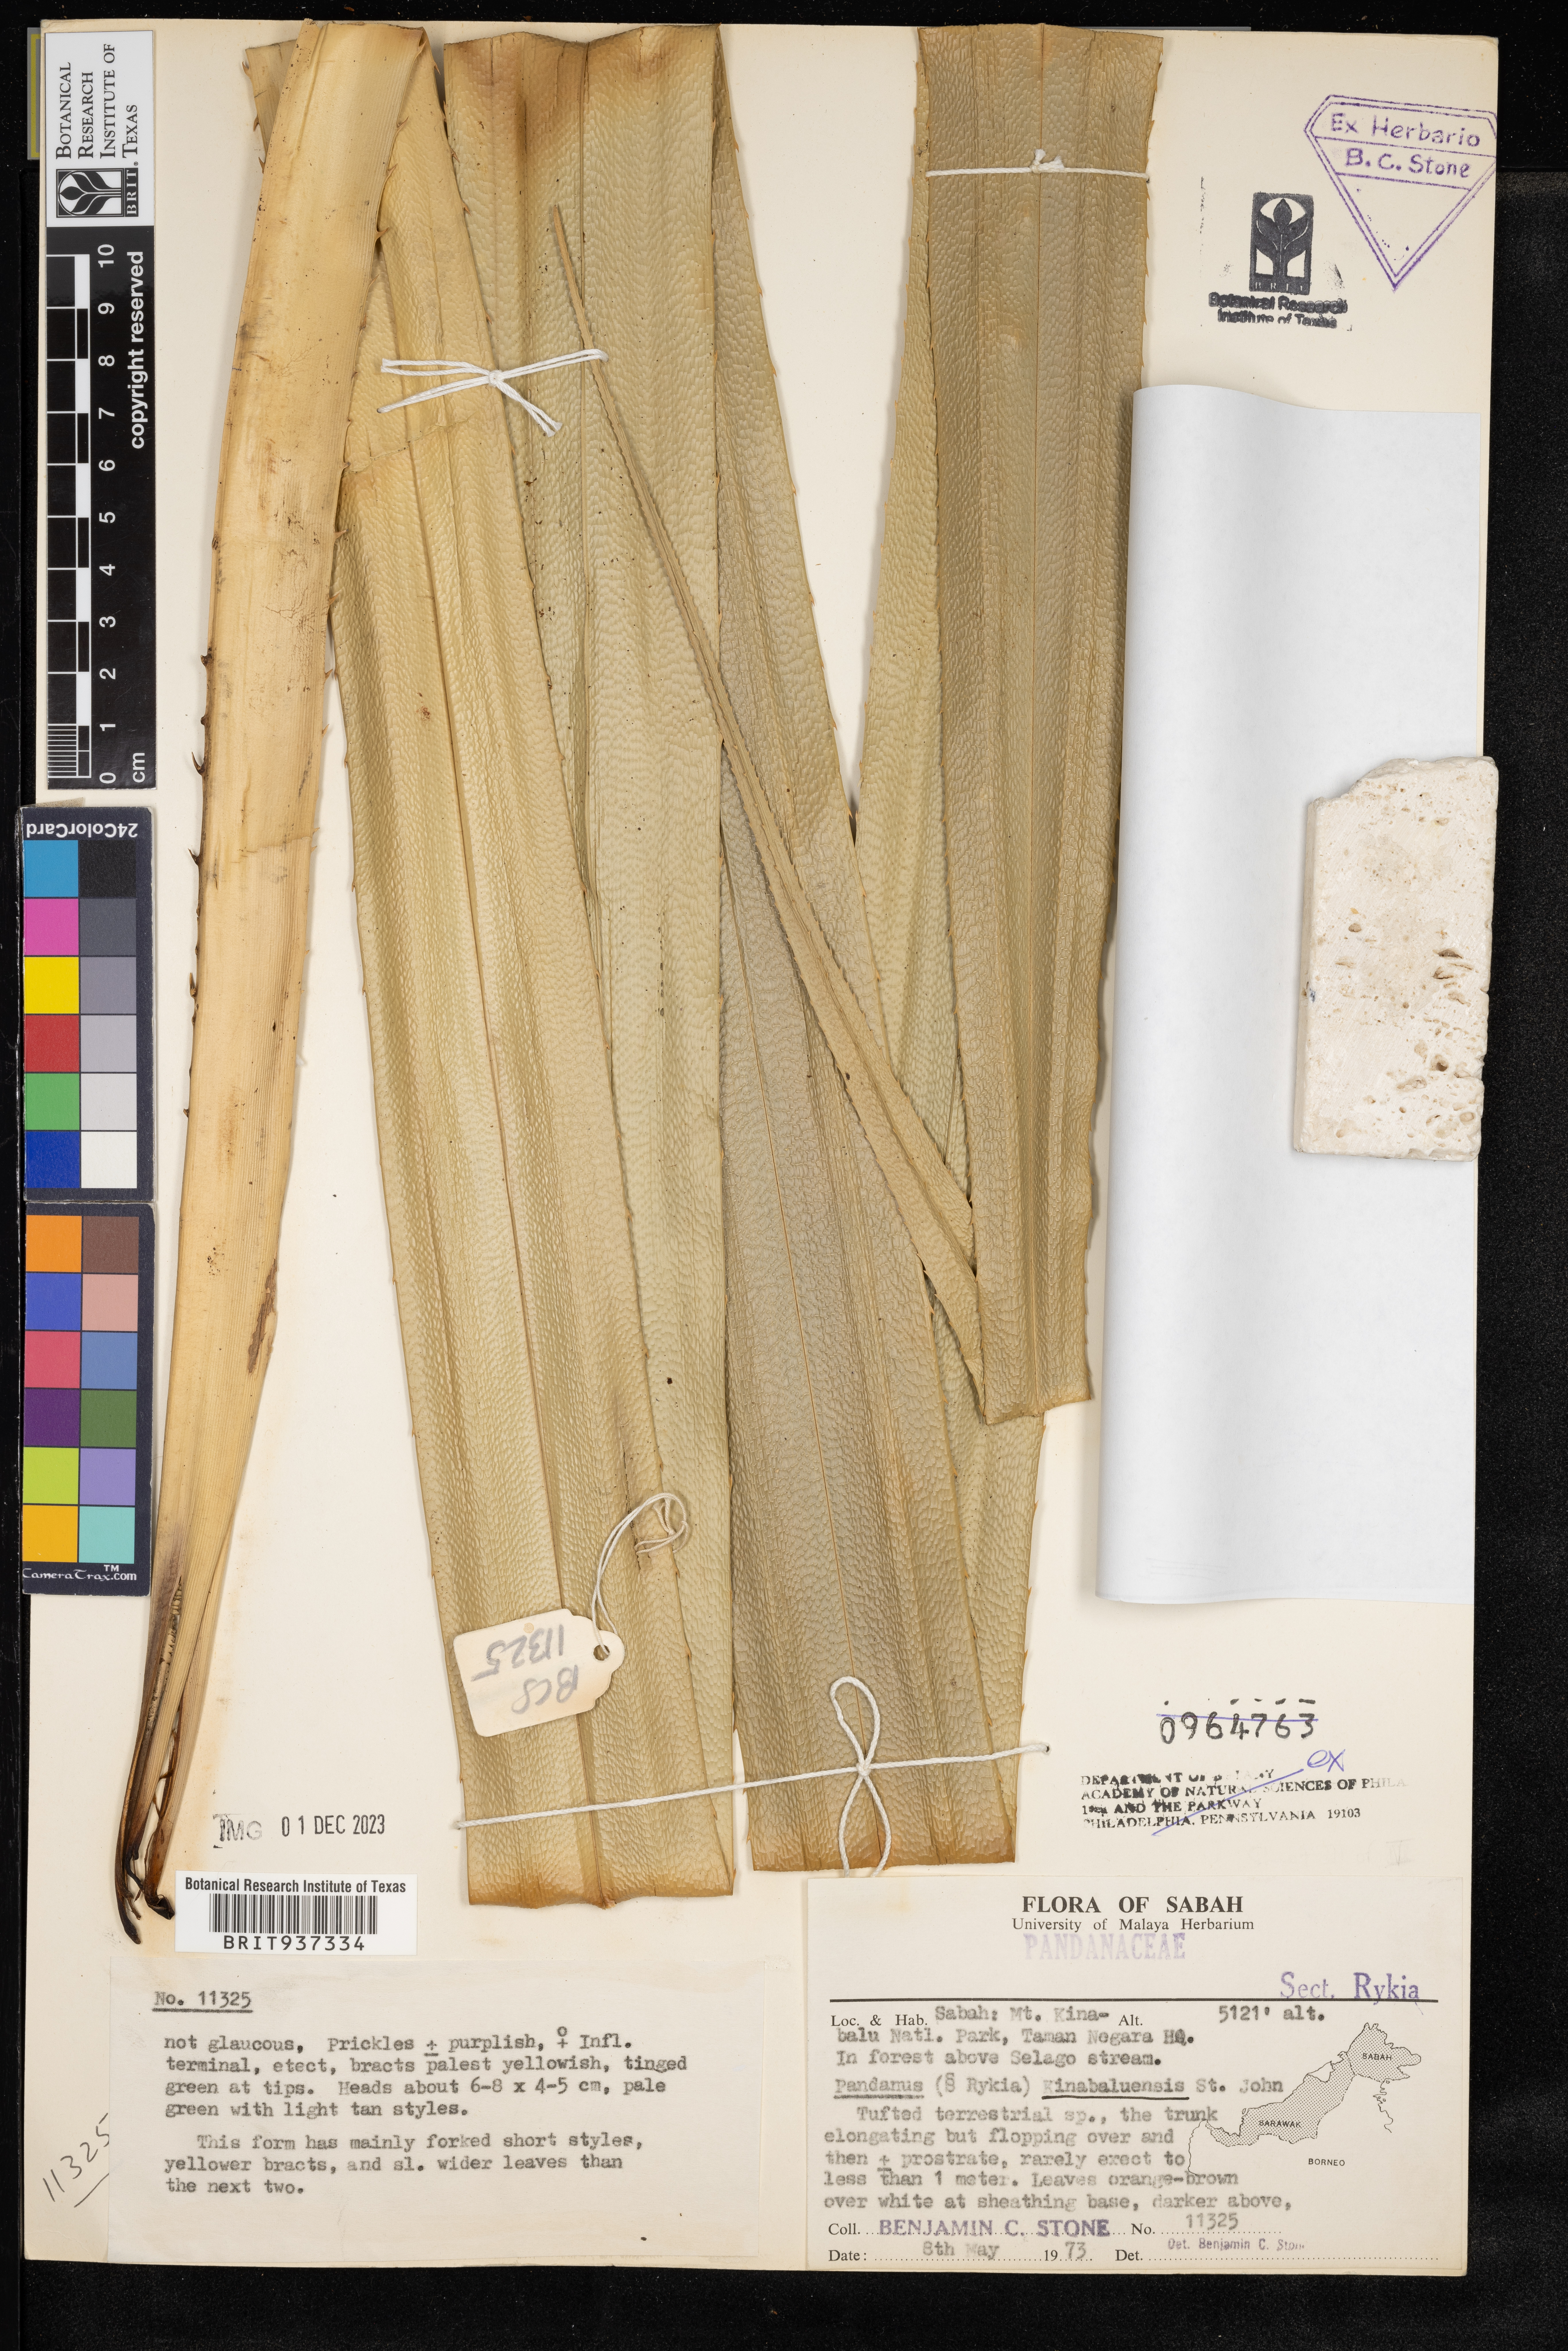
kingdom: Plantae
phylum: Tracheophyta
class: Liliopsida
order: Pandanales
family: Pandanaceae
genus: Pandanus
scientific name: Pandanus
